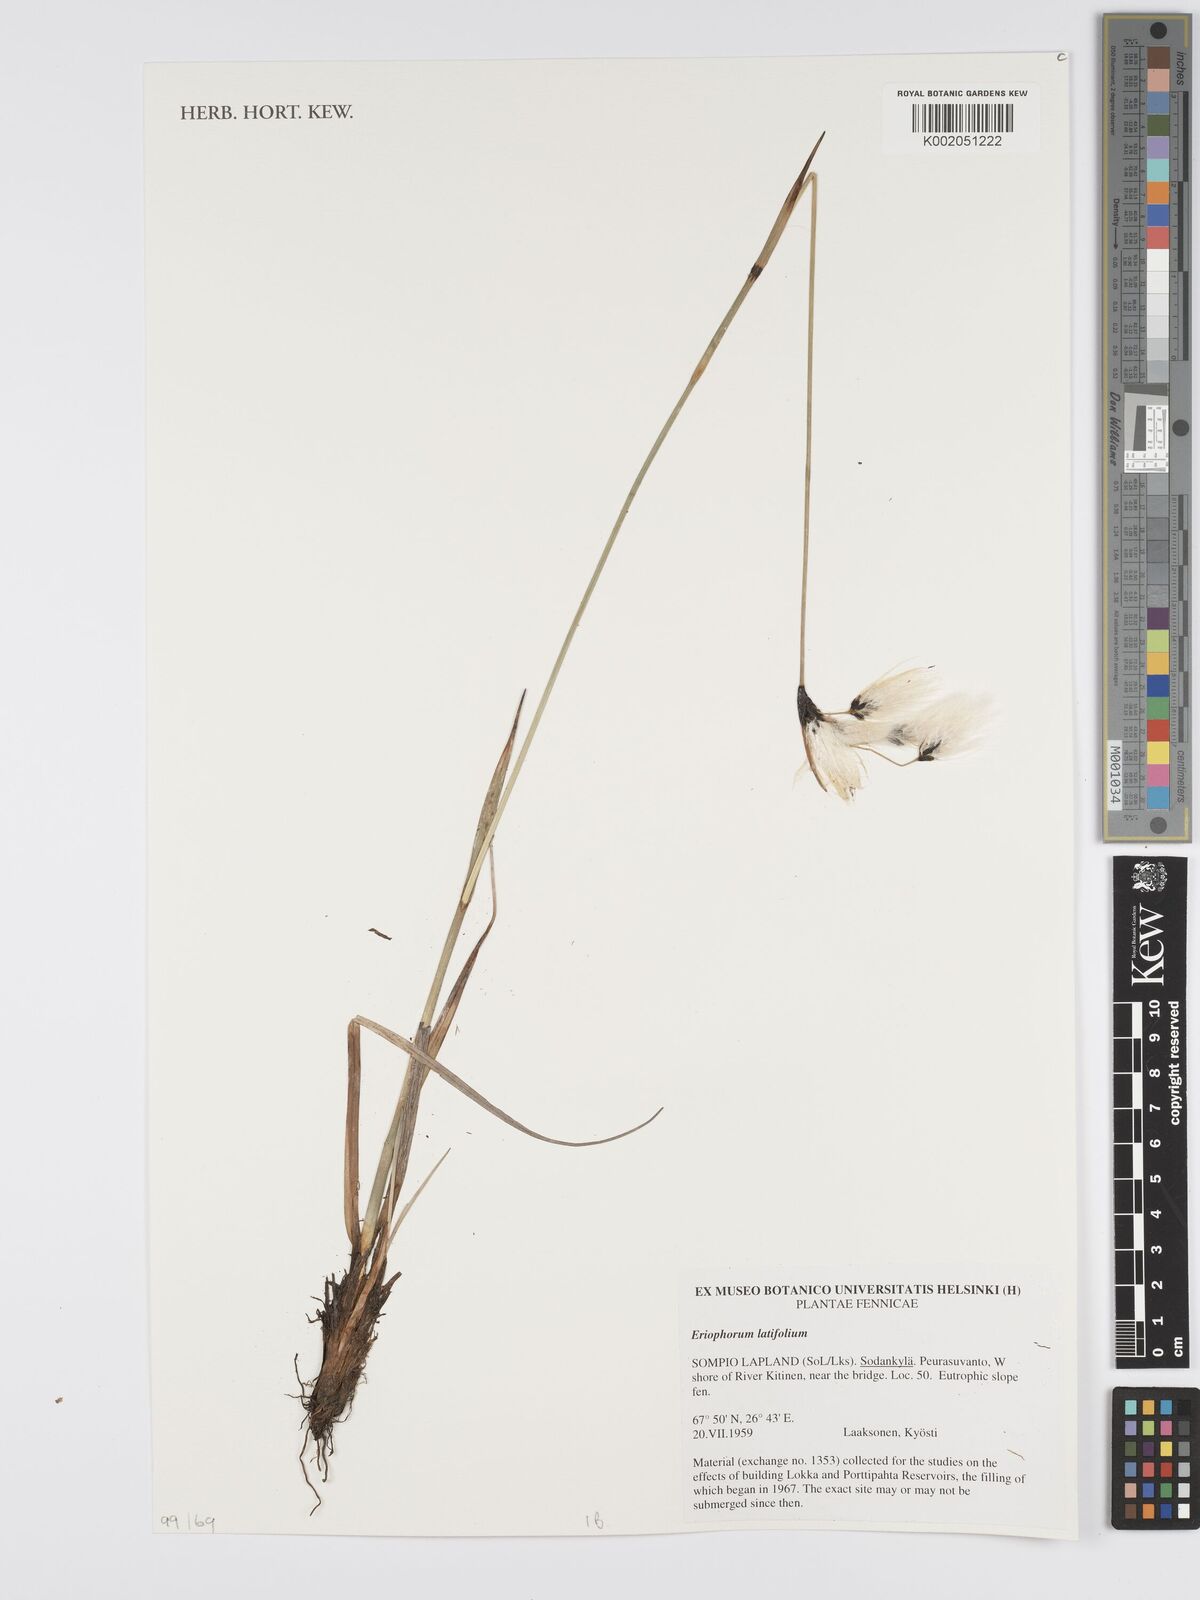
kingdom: Plantae
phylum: Tracheophyta
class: Liliopsida
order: Poales
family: Cyperaceae
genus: Eriophorum
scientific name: Eriophorum latifolium
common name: Broad-leaved cottongrass
